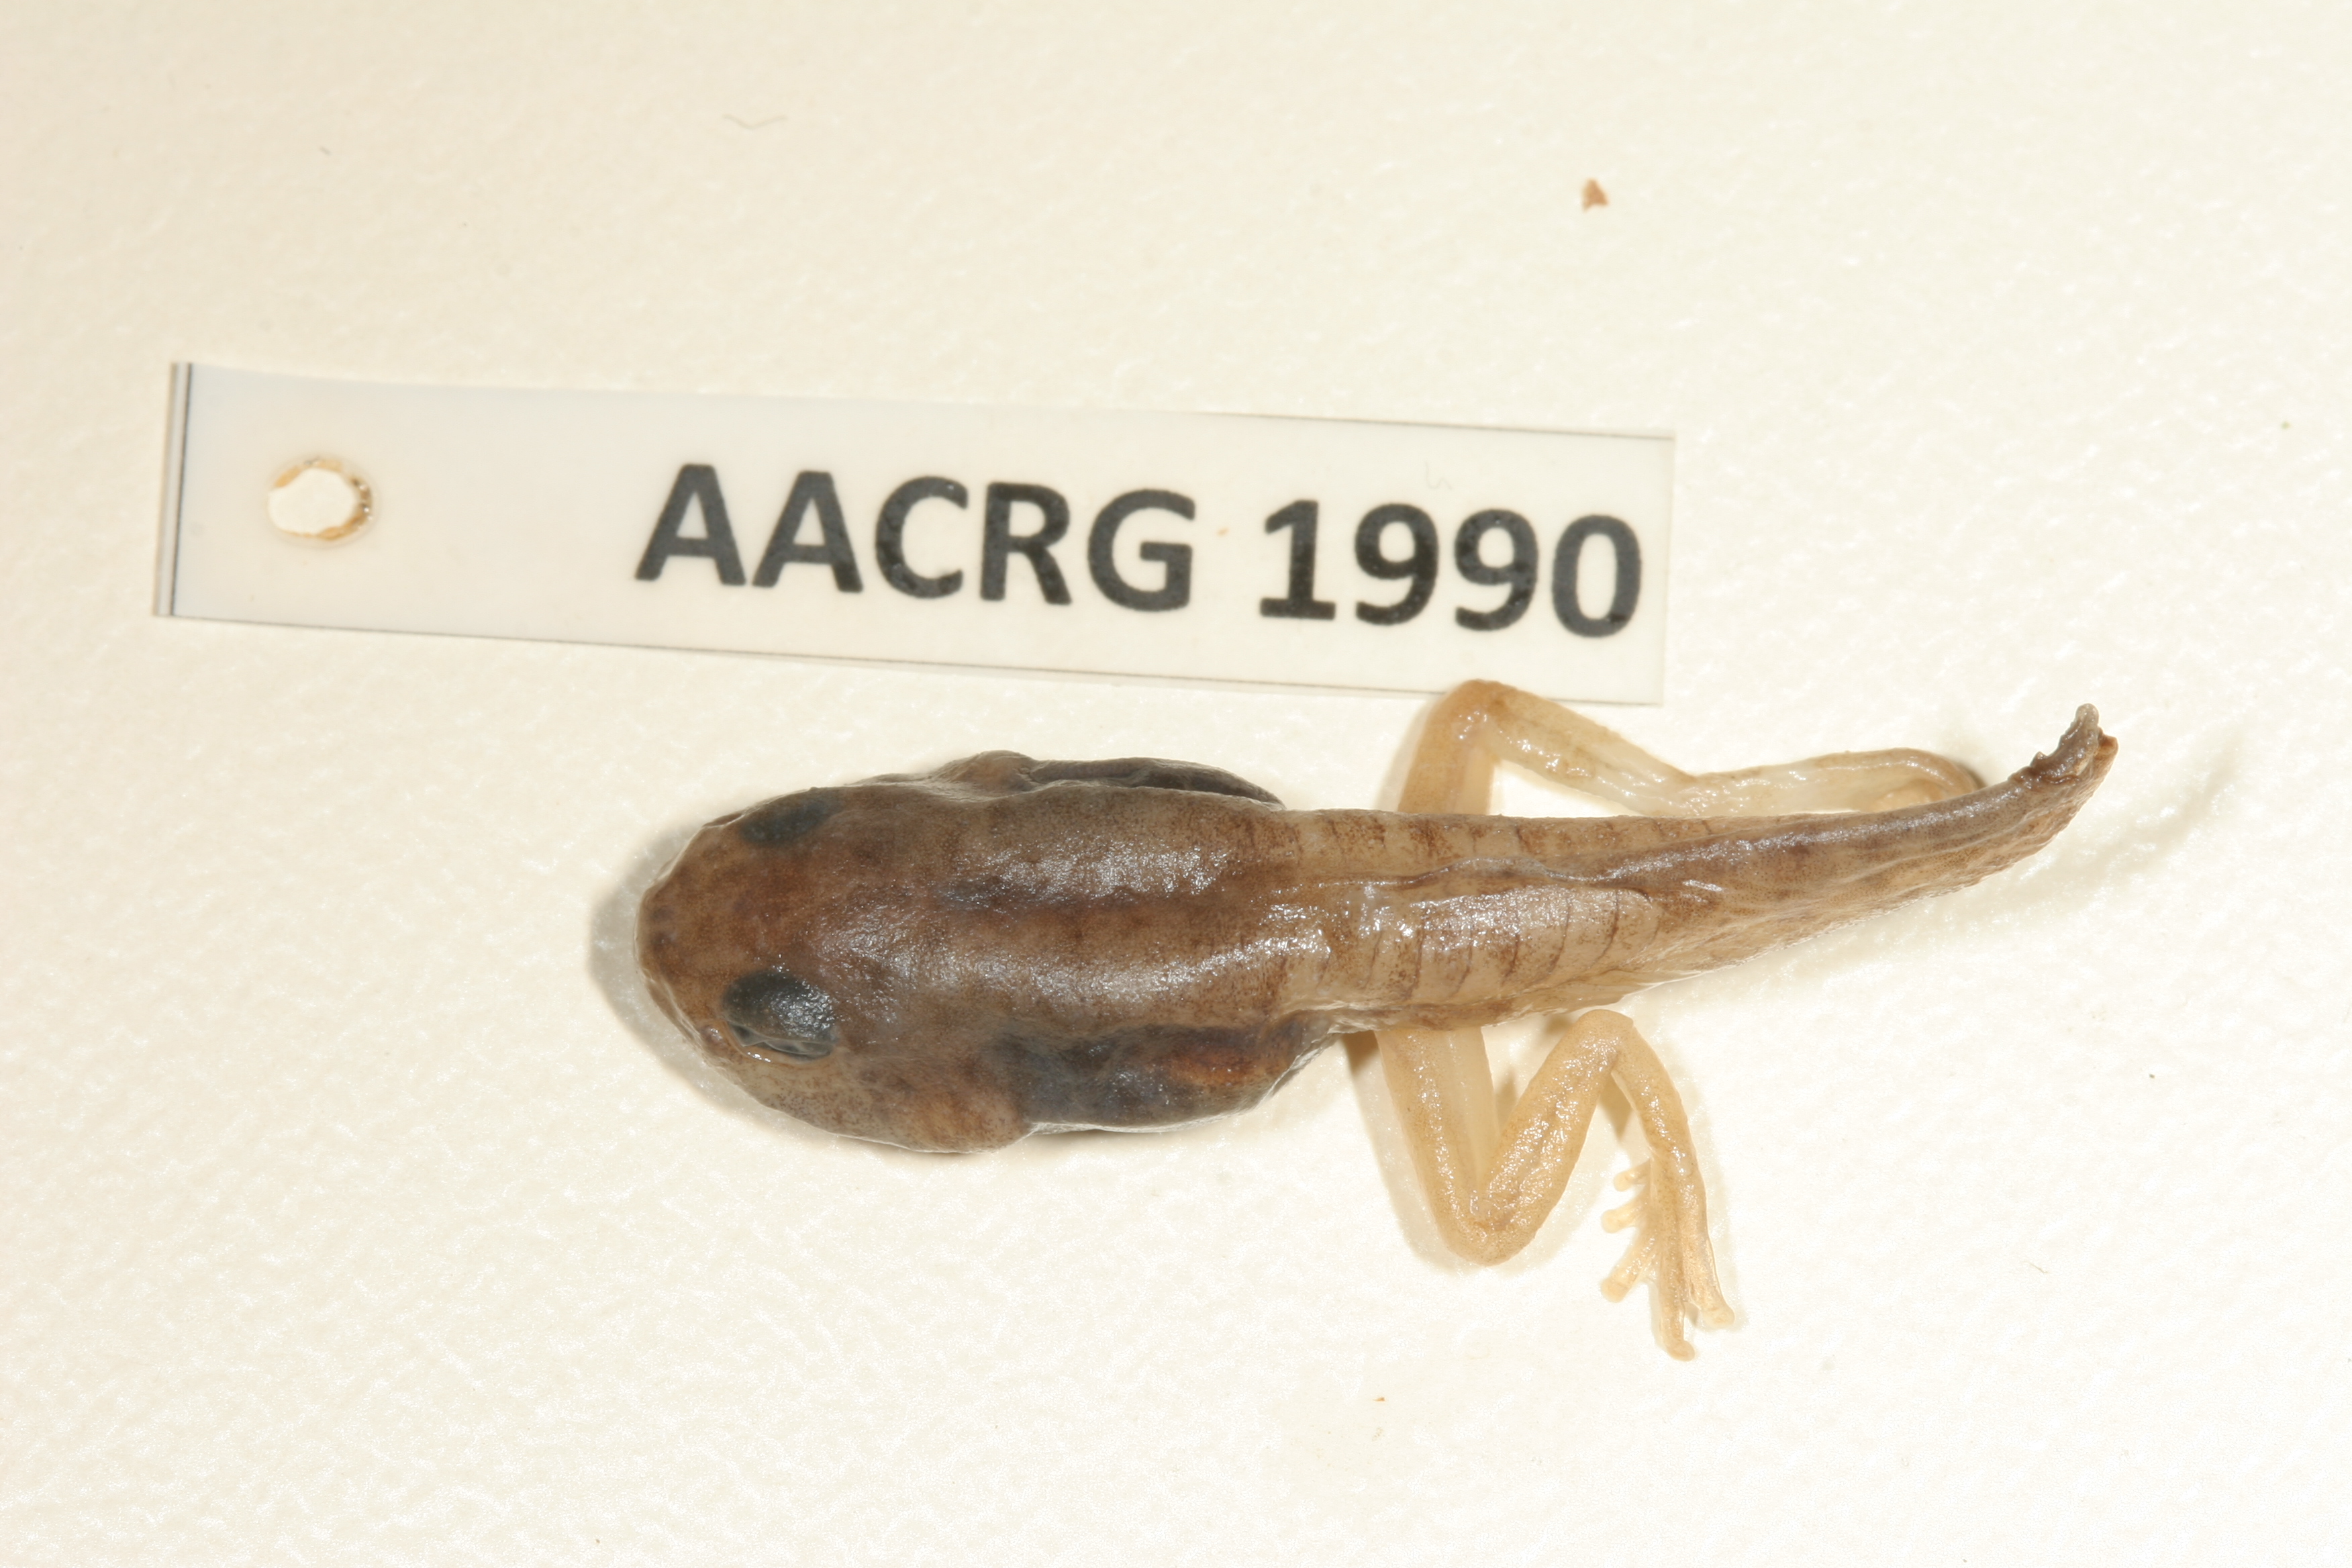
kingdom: Animalia
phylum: Chordata
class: Amphibia
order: Anura
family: Rhacophoridae
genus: Chiromantis
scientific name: Chiromantis xerampelina
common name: African gray treefrog
